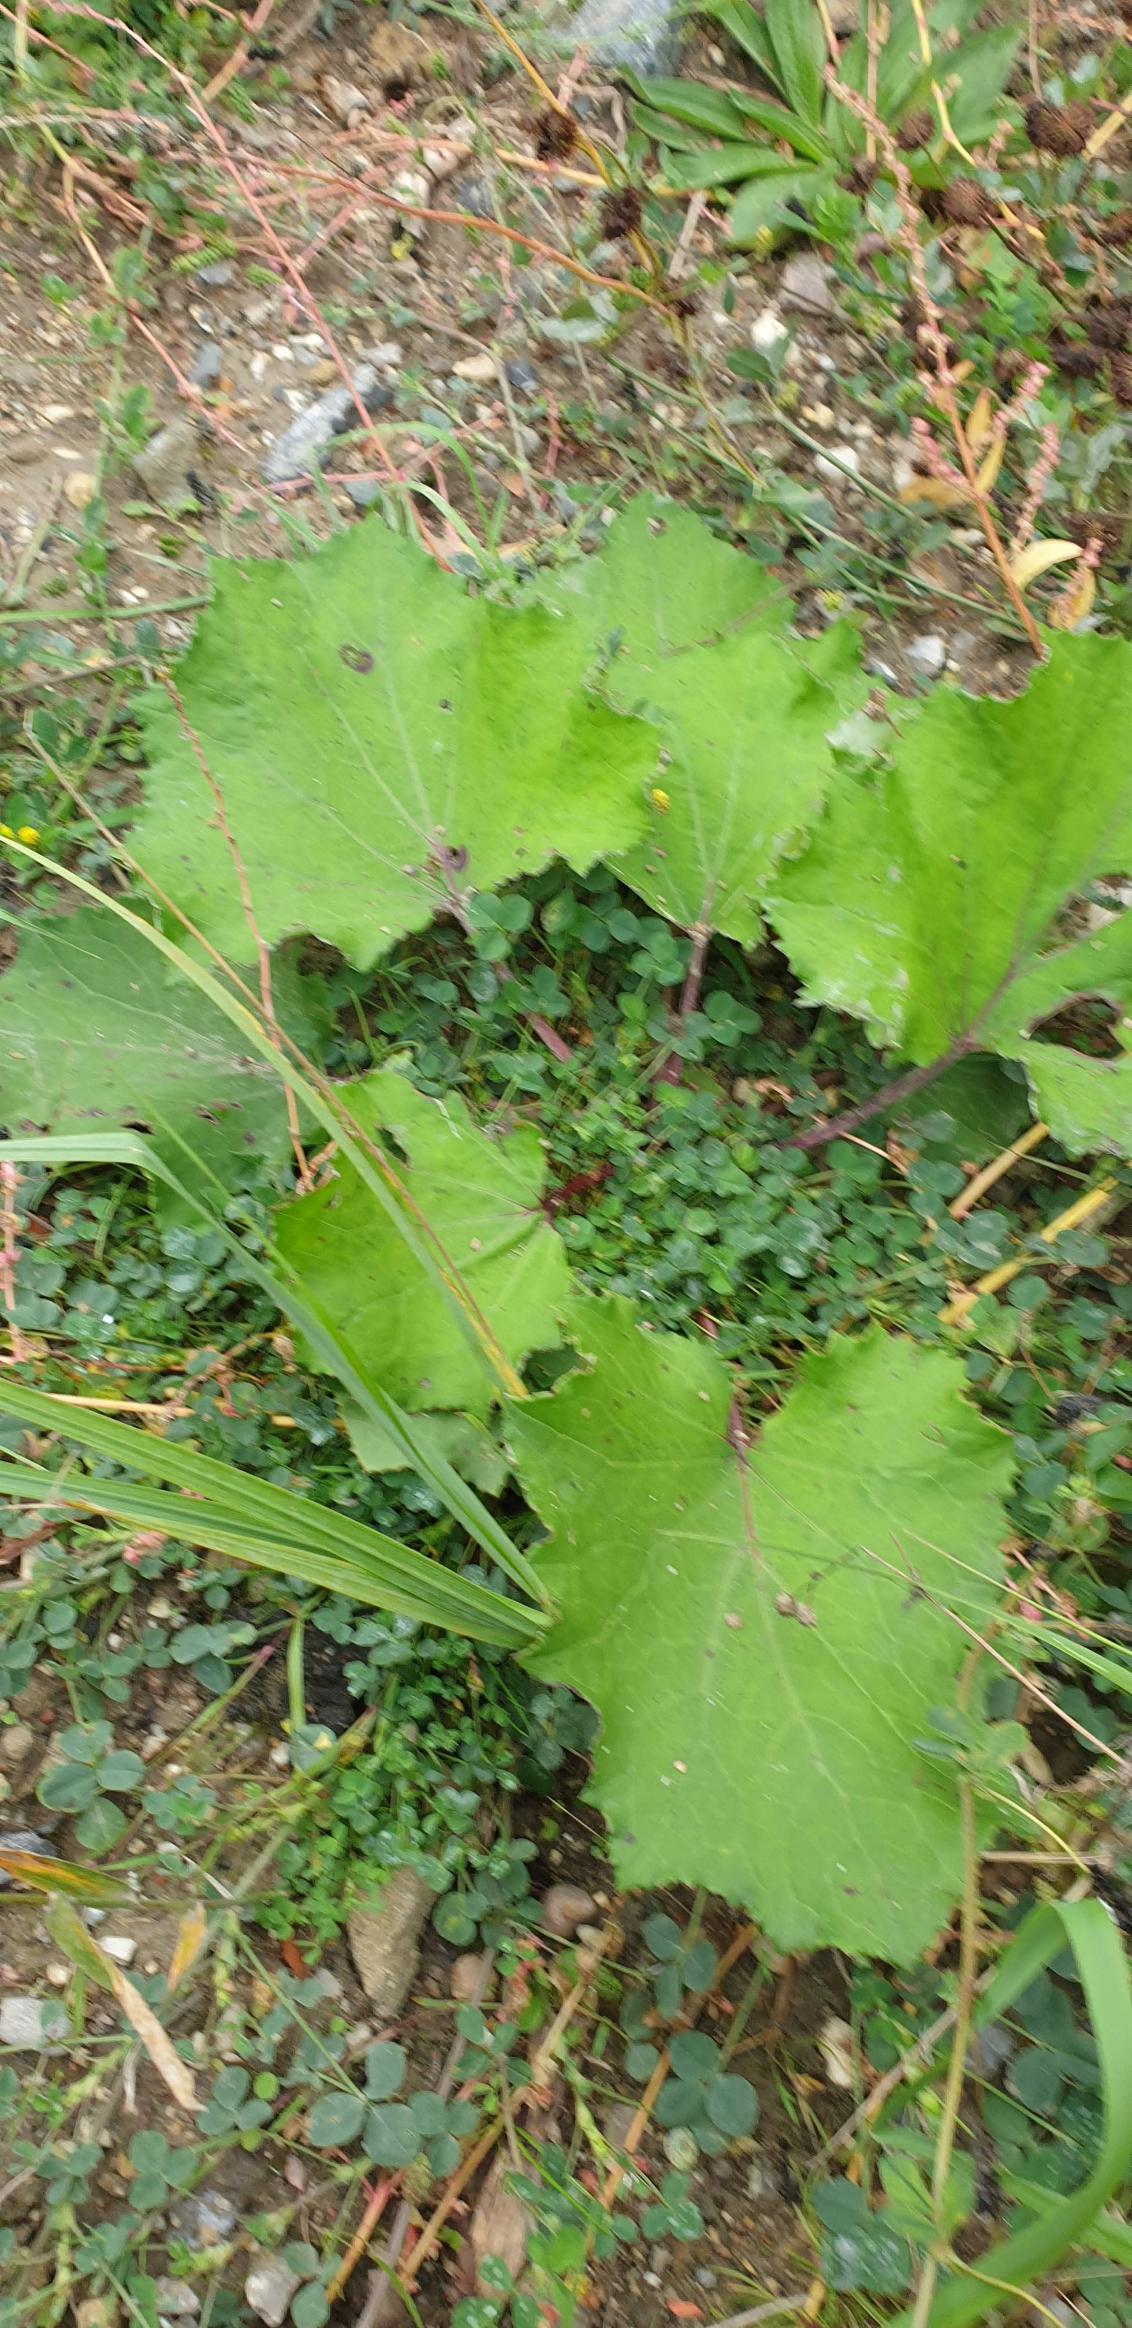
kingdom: Plantae
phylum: Tracheophyta
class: Magnoliopsida
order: Asterales
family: Asteraceae
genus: Tussilago
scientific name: Tussilago farfara
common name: Følfod
